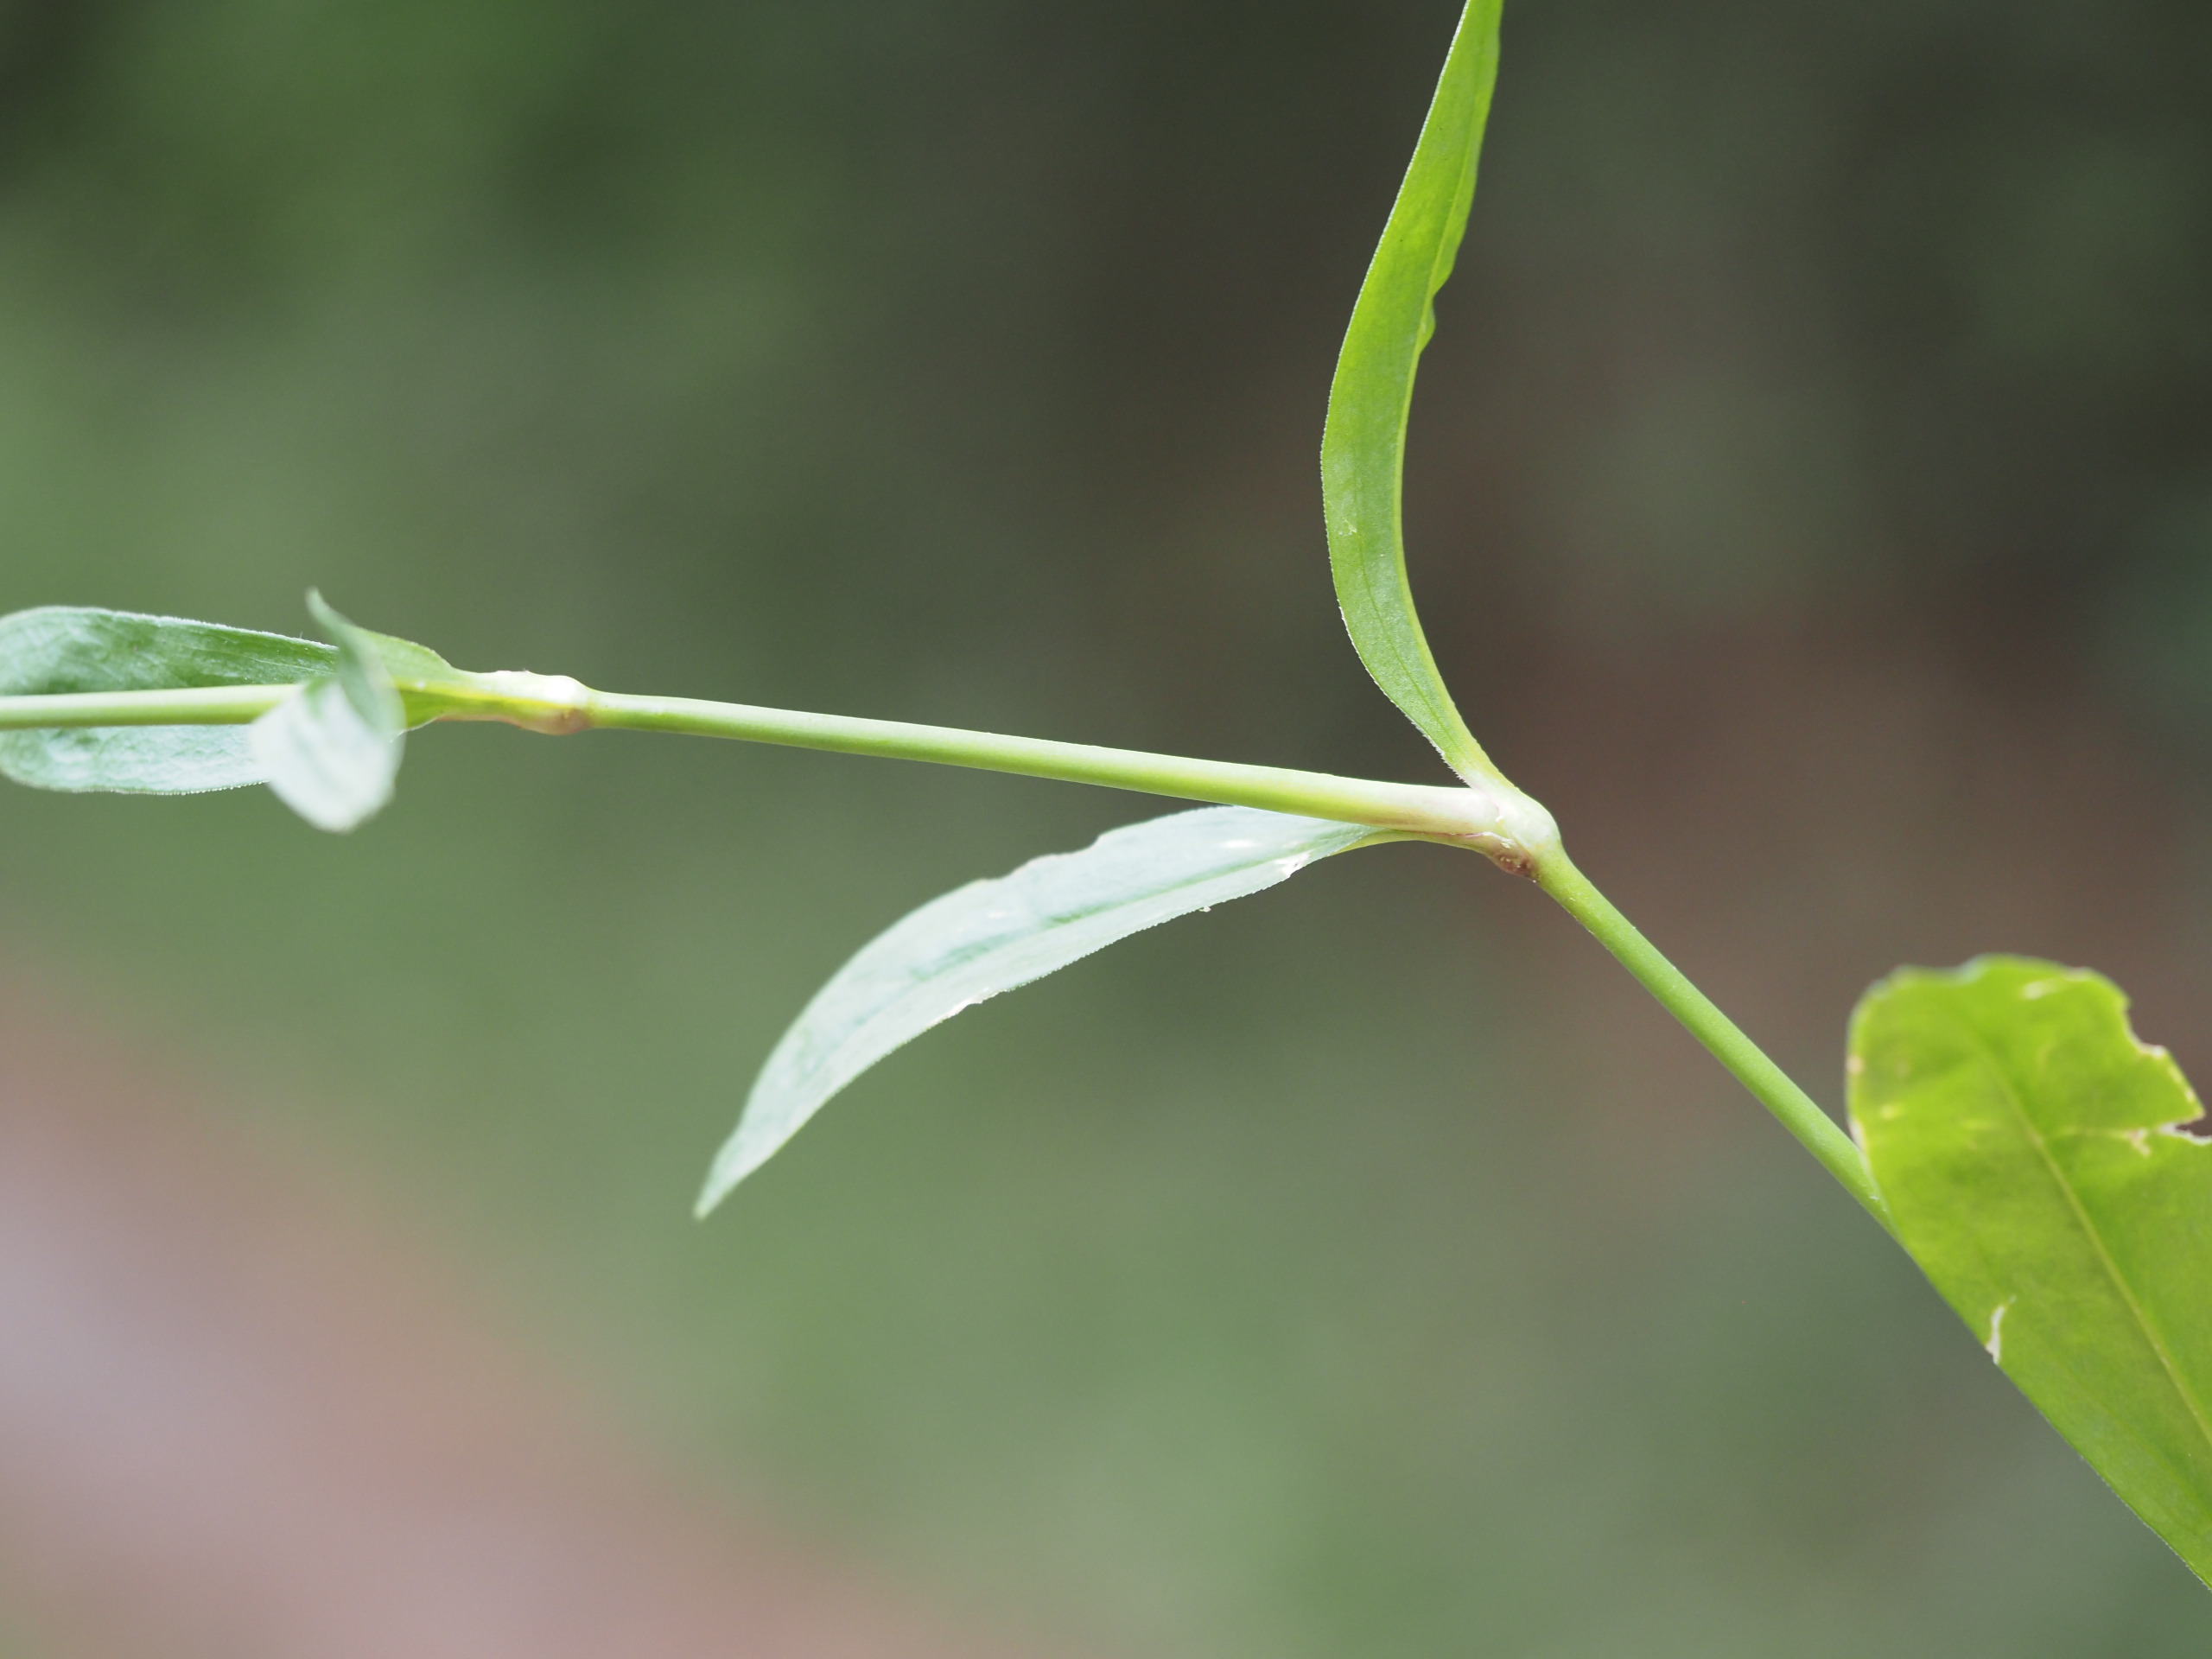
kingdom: Plantae
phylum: Tracheophyta
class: Magnoliopsida
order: Caryophyllales
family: Caryophyllaceae
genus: Dianthus
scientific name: Dianthus barbatus
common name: Studenter-nellike
